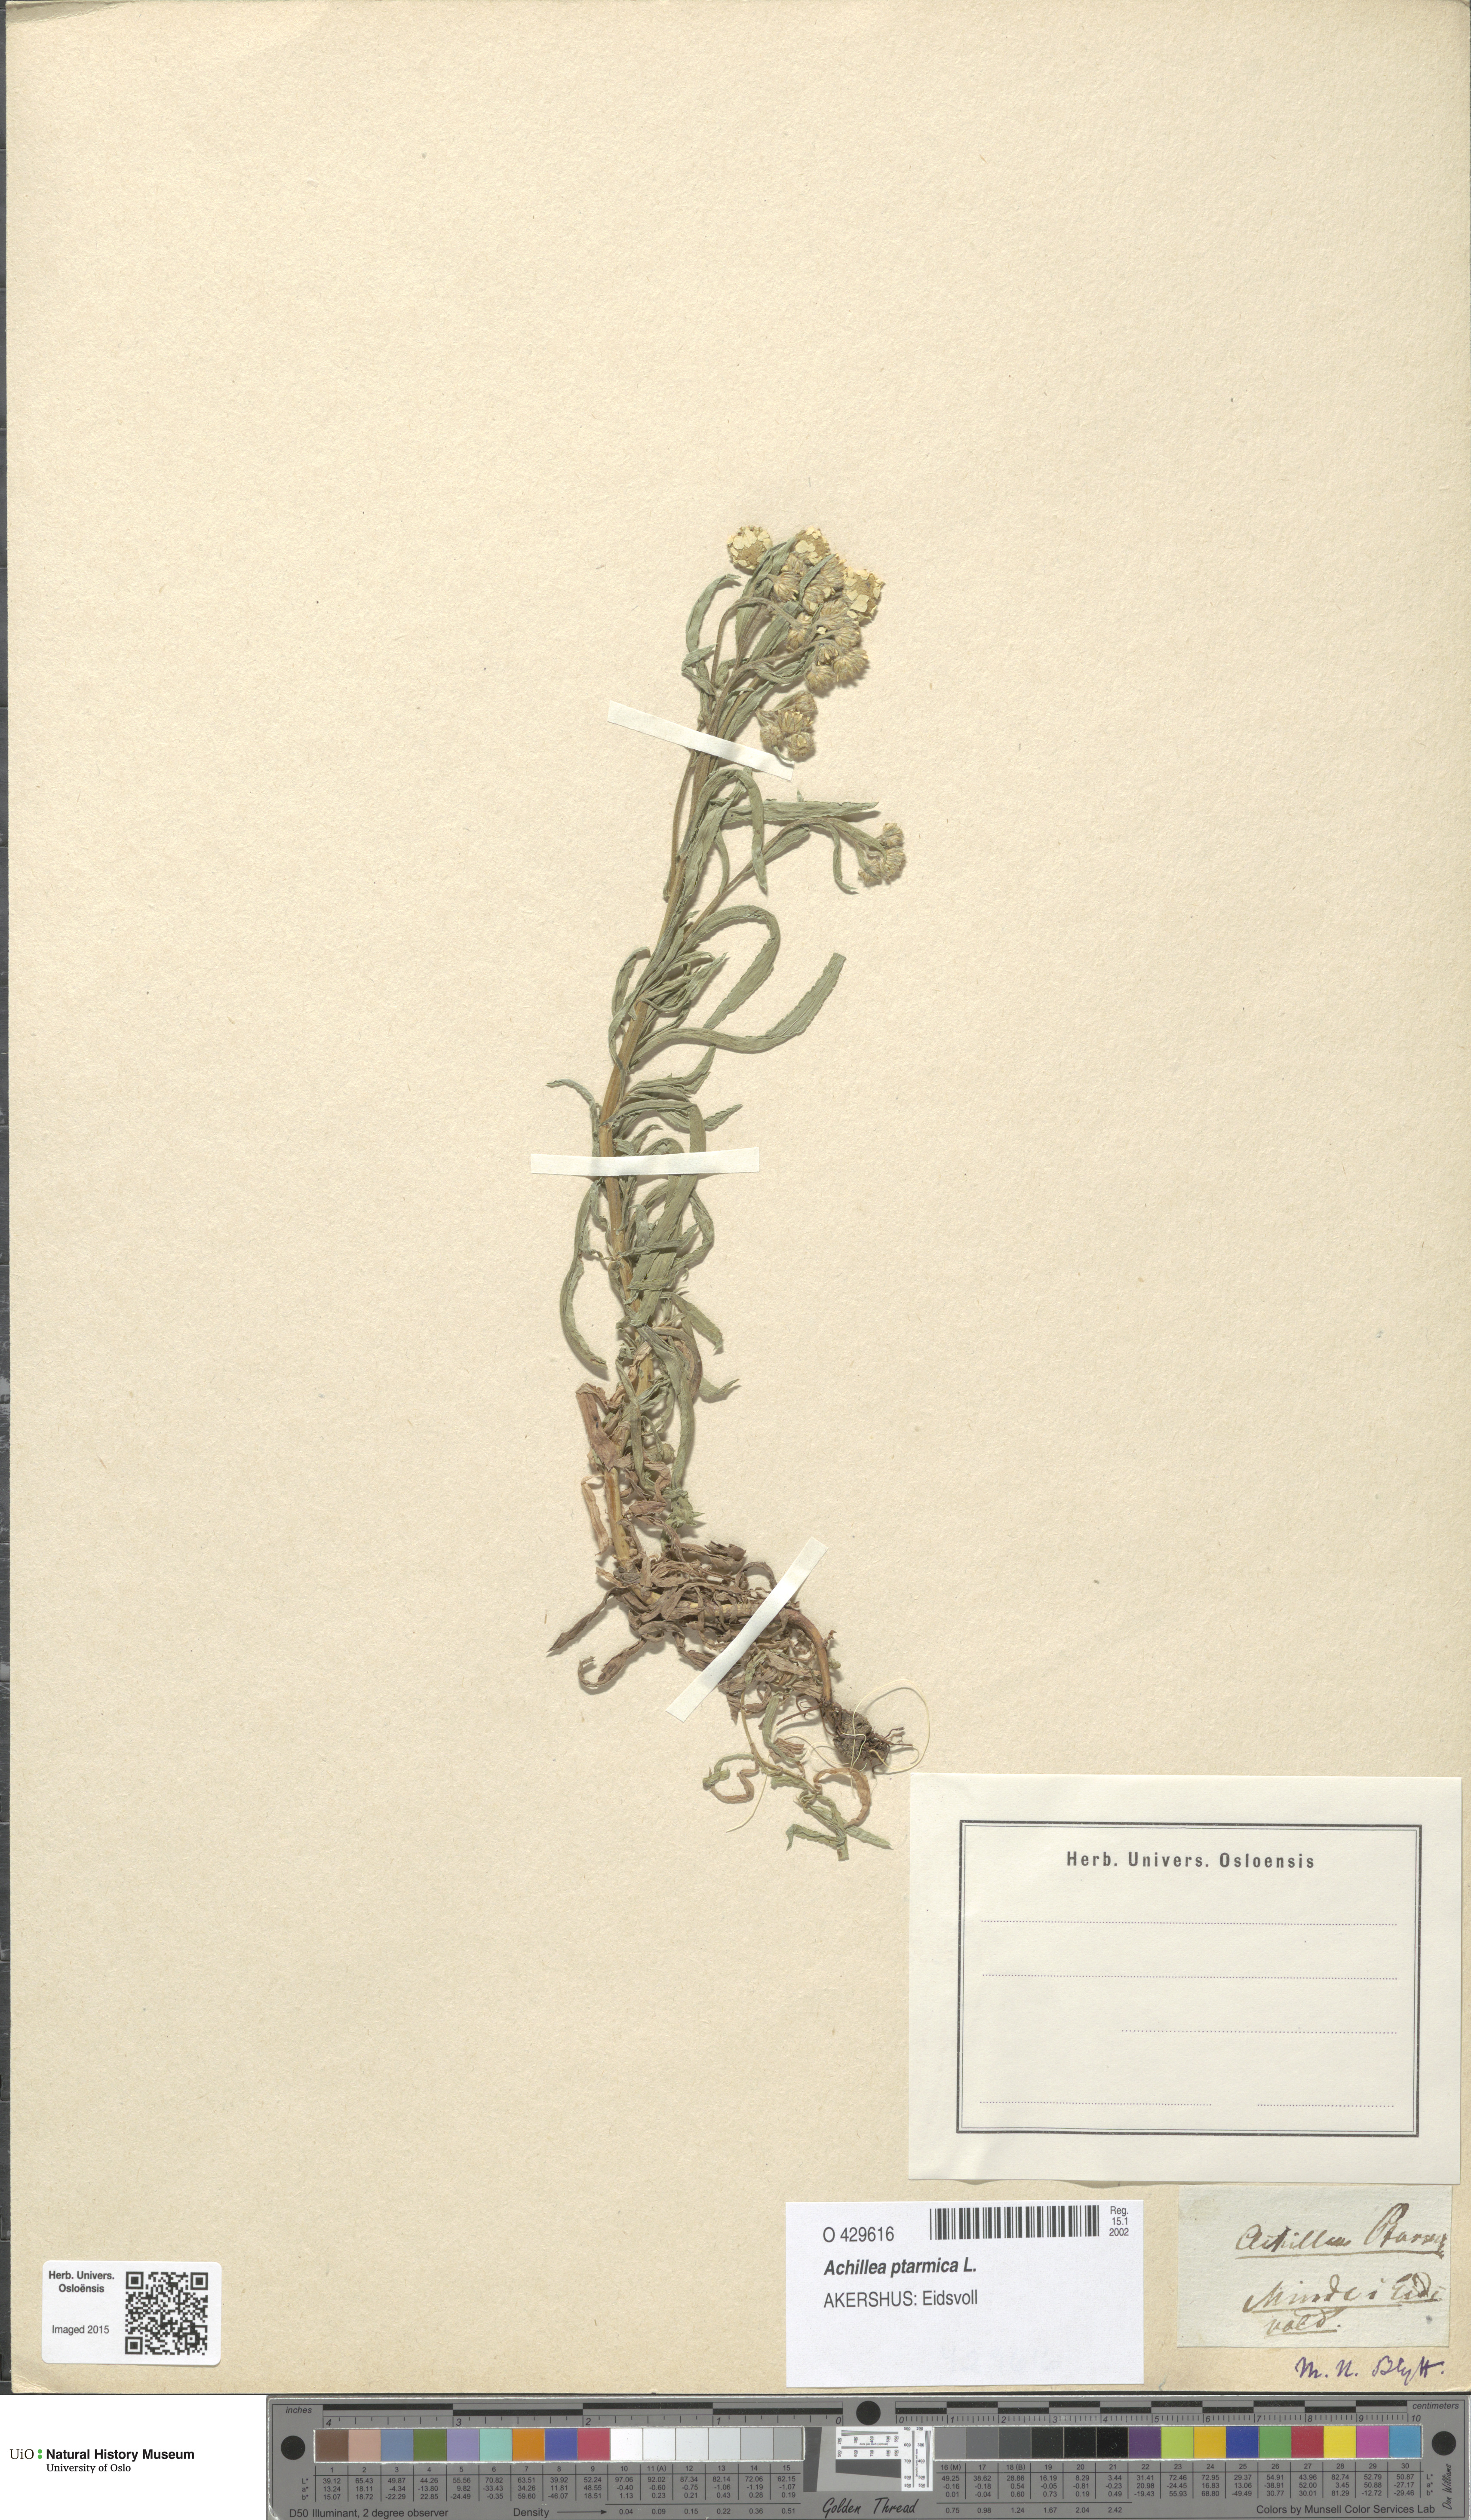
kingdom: Plantae
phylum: Tracheophyta
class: Magnoliopsida
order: Asterales
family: Asteraceae
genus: Achillea
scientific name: Achillea ptarmica
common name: Sneezeweed
